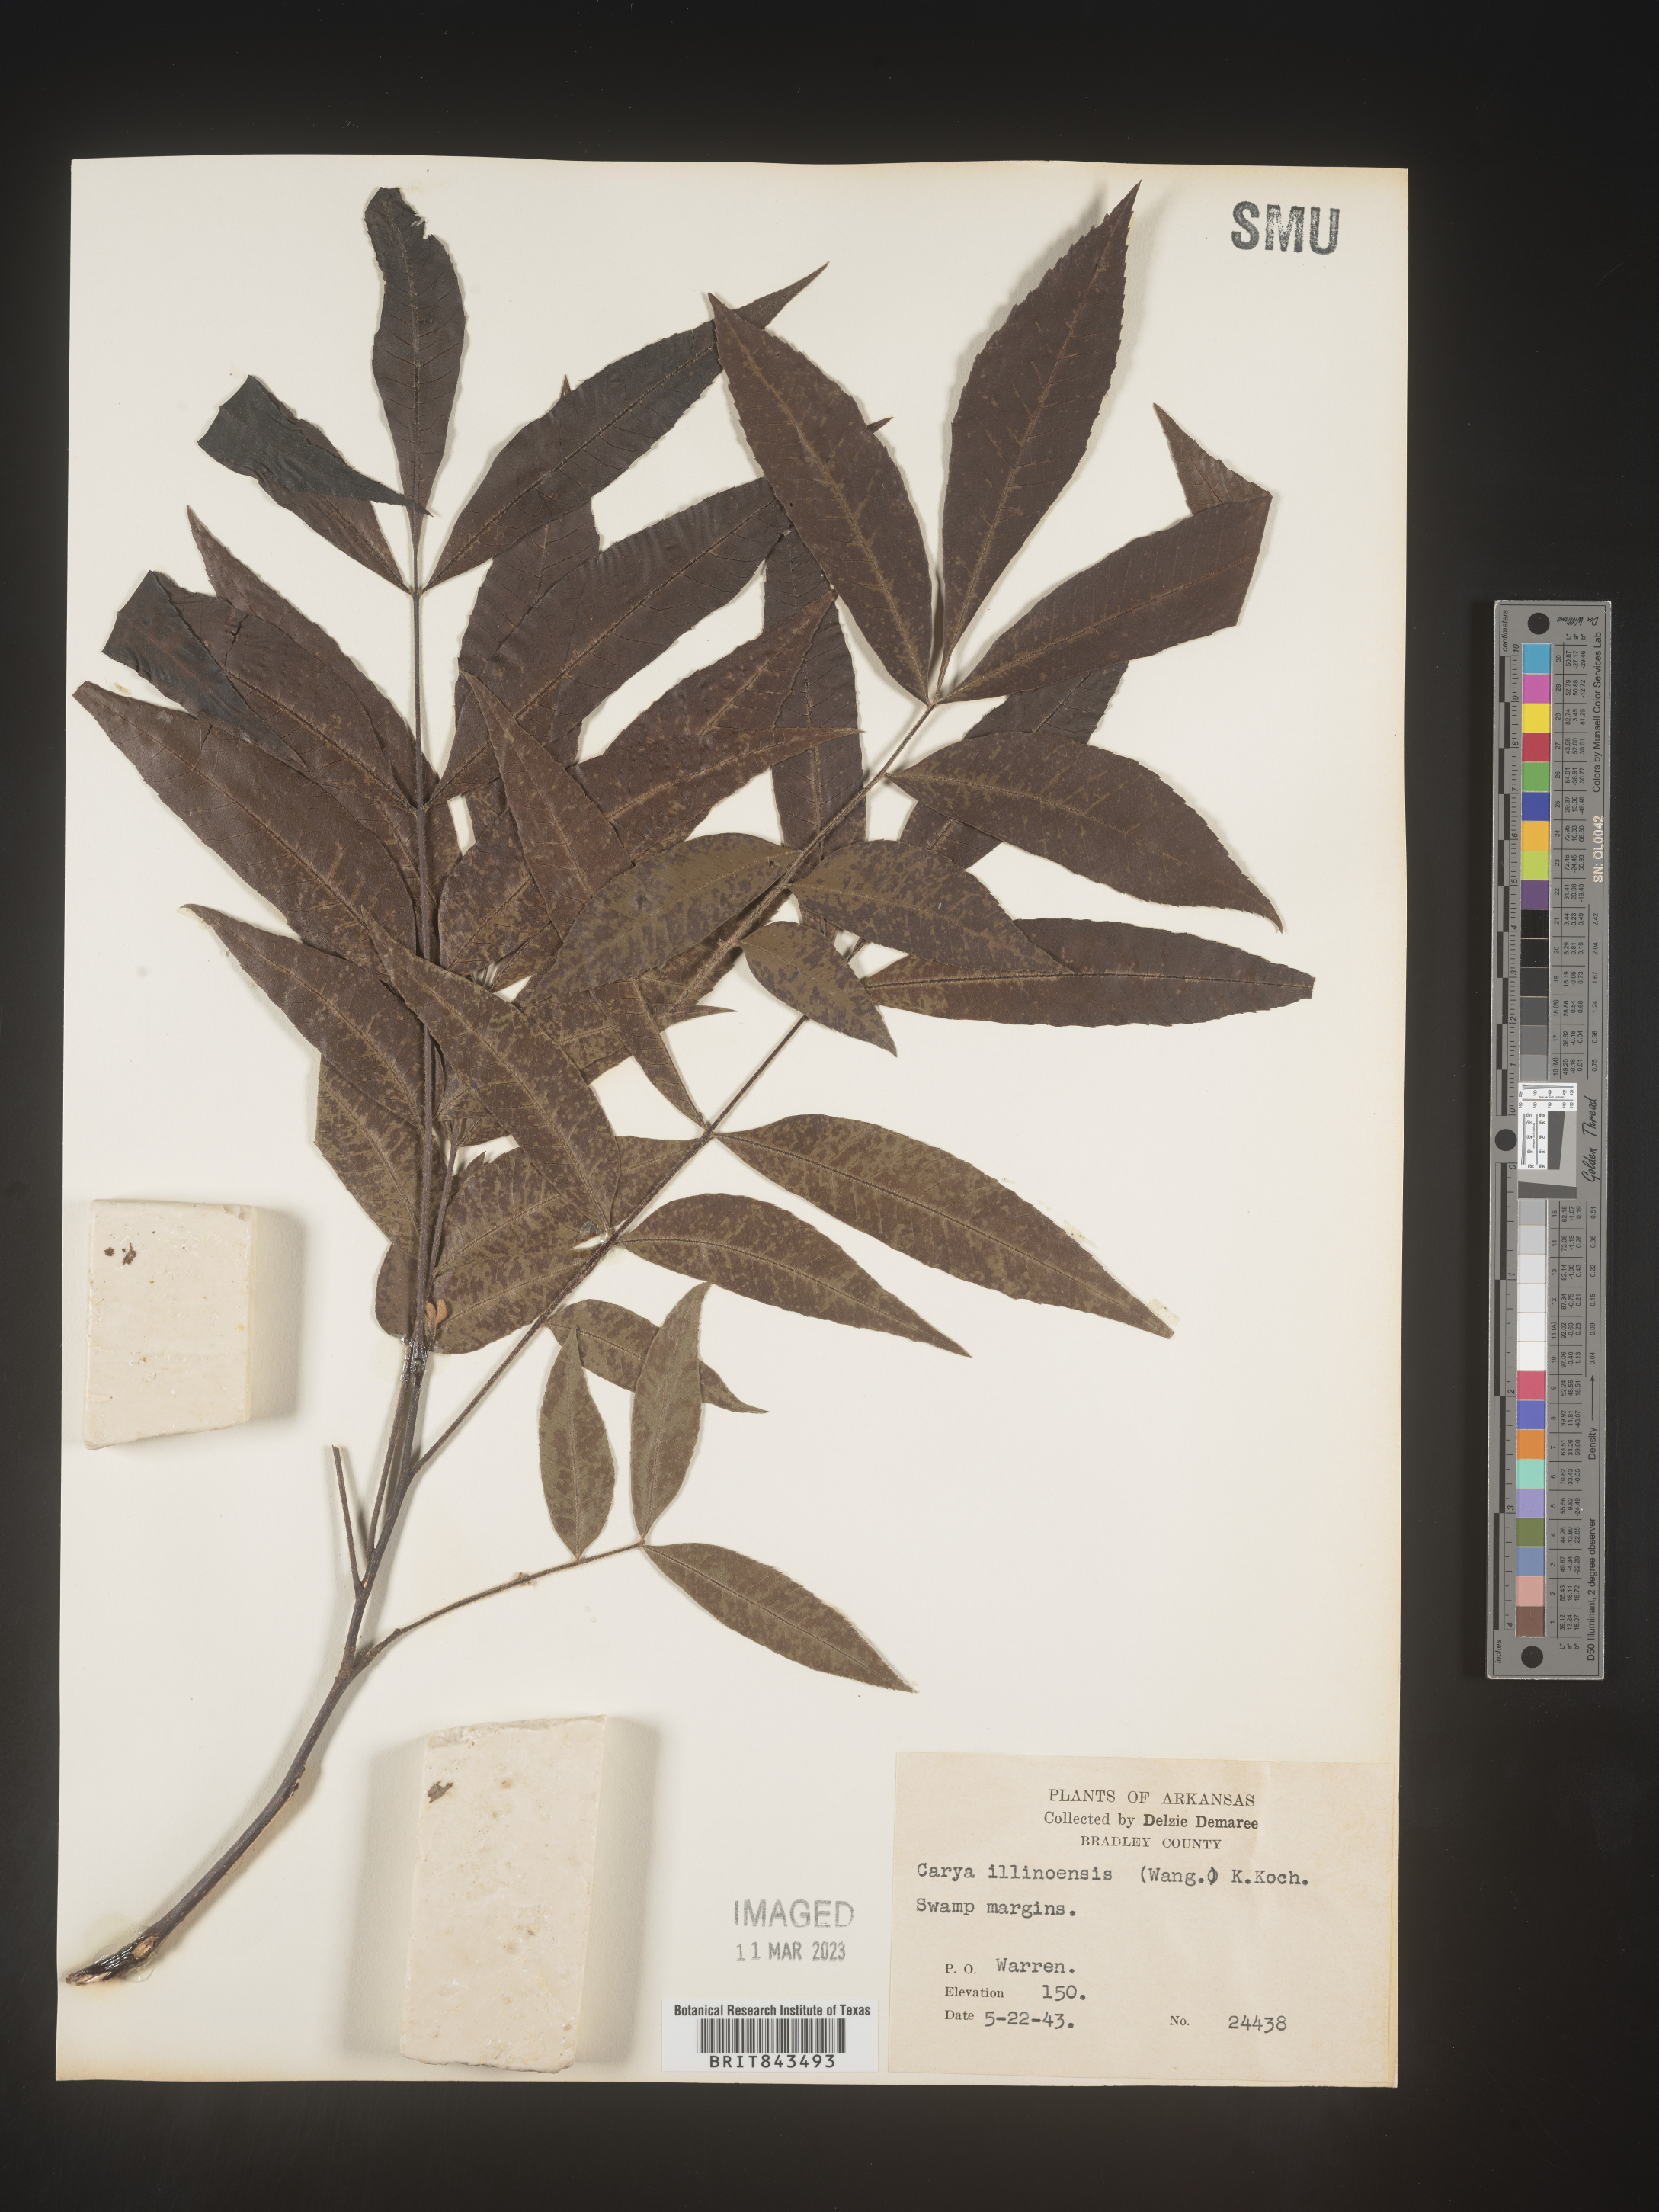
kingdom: Plantae
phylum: Tracheophyta
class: Magnoliopsida
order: Fagales
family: Juglandaceae
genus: Carya
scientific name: Carya illinoinensis
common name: Pecan
